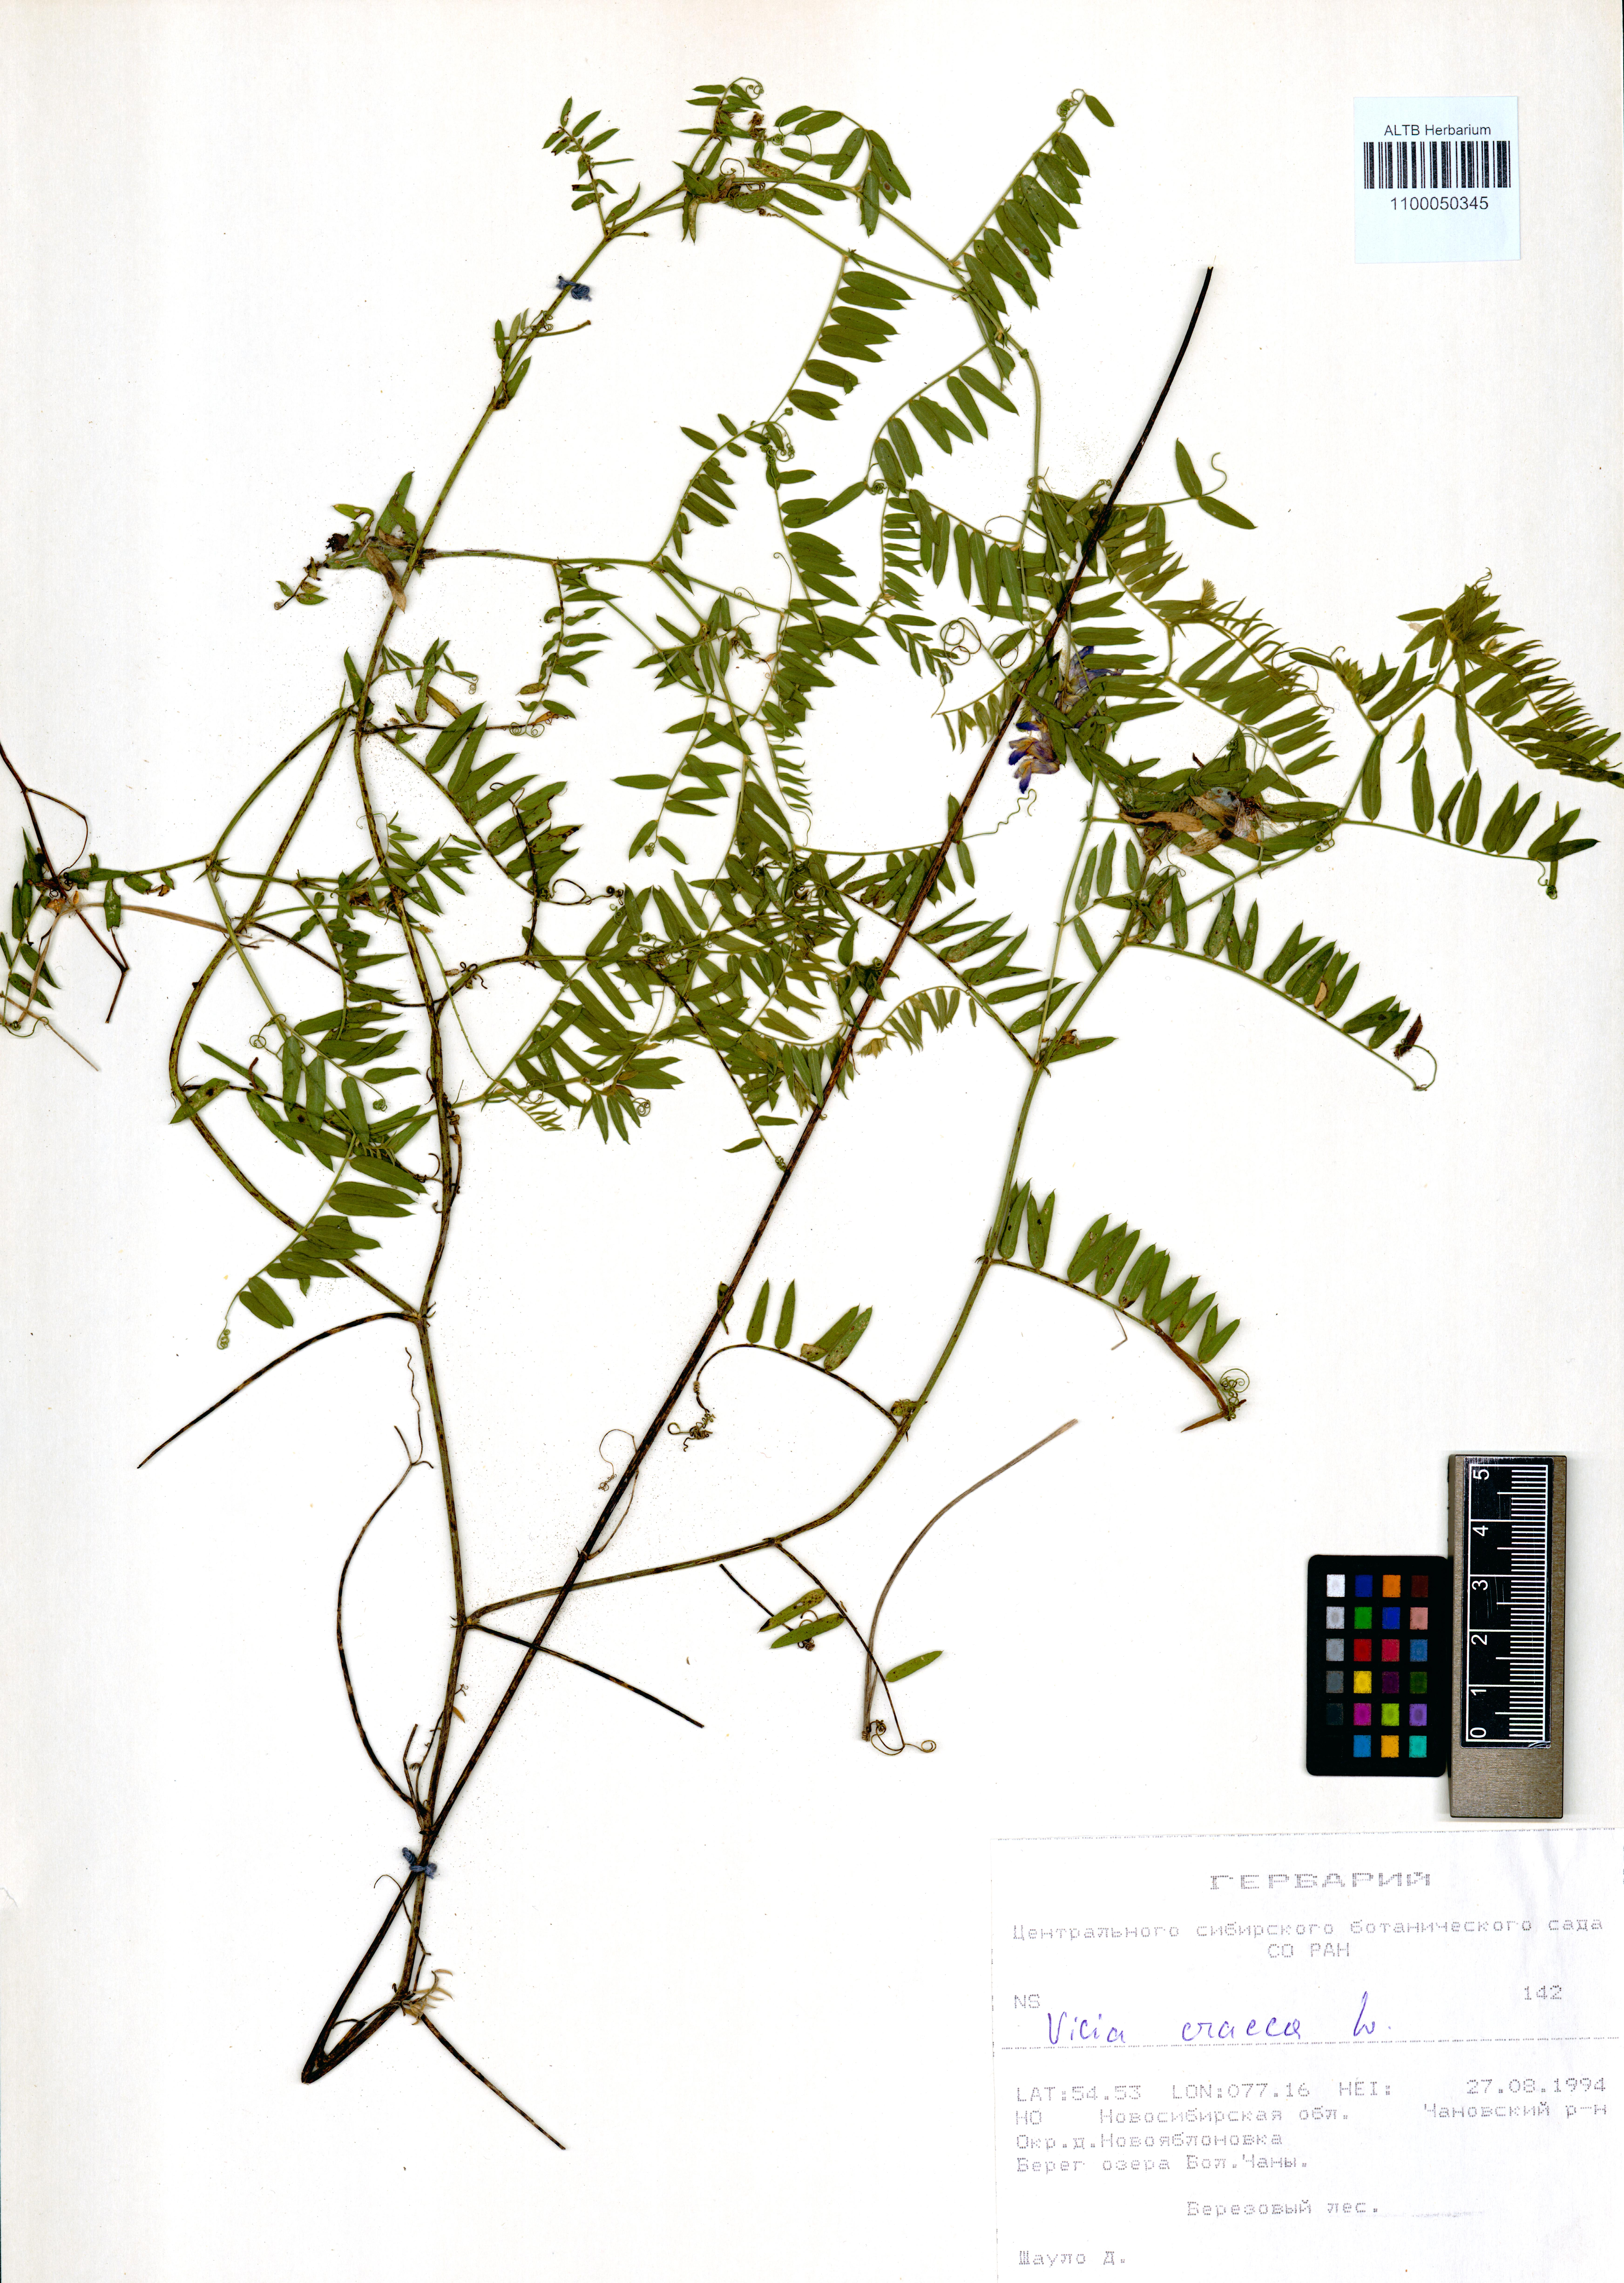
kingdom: Plantae
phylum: Tracheophyta
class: Magnoliopsida
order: Fabales
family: Fabaceae
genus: Vicia
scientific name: Vicia cracca
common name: Bird vetch
